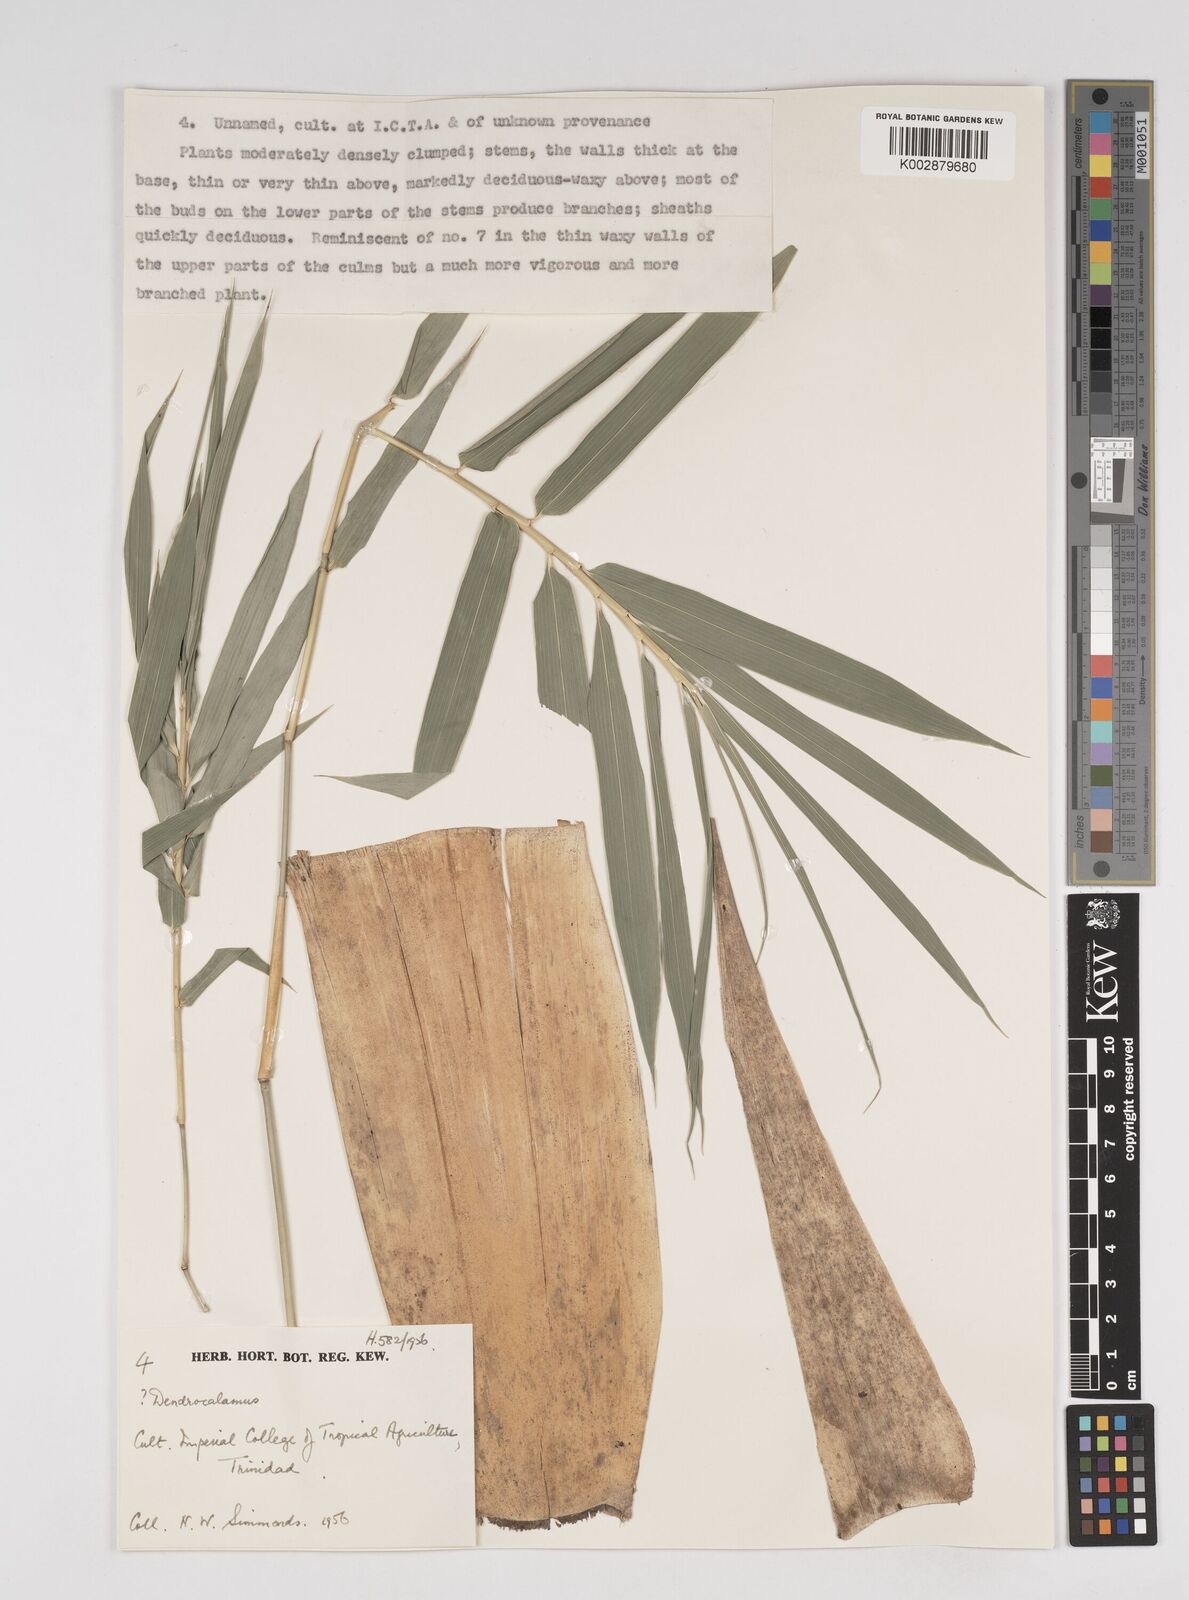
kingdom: Plantae
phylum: Tracheophyta
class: Liliopsida
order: Poales
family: Poaceae
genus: Dendrocalamus
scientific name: Dendrocalamus
